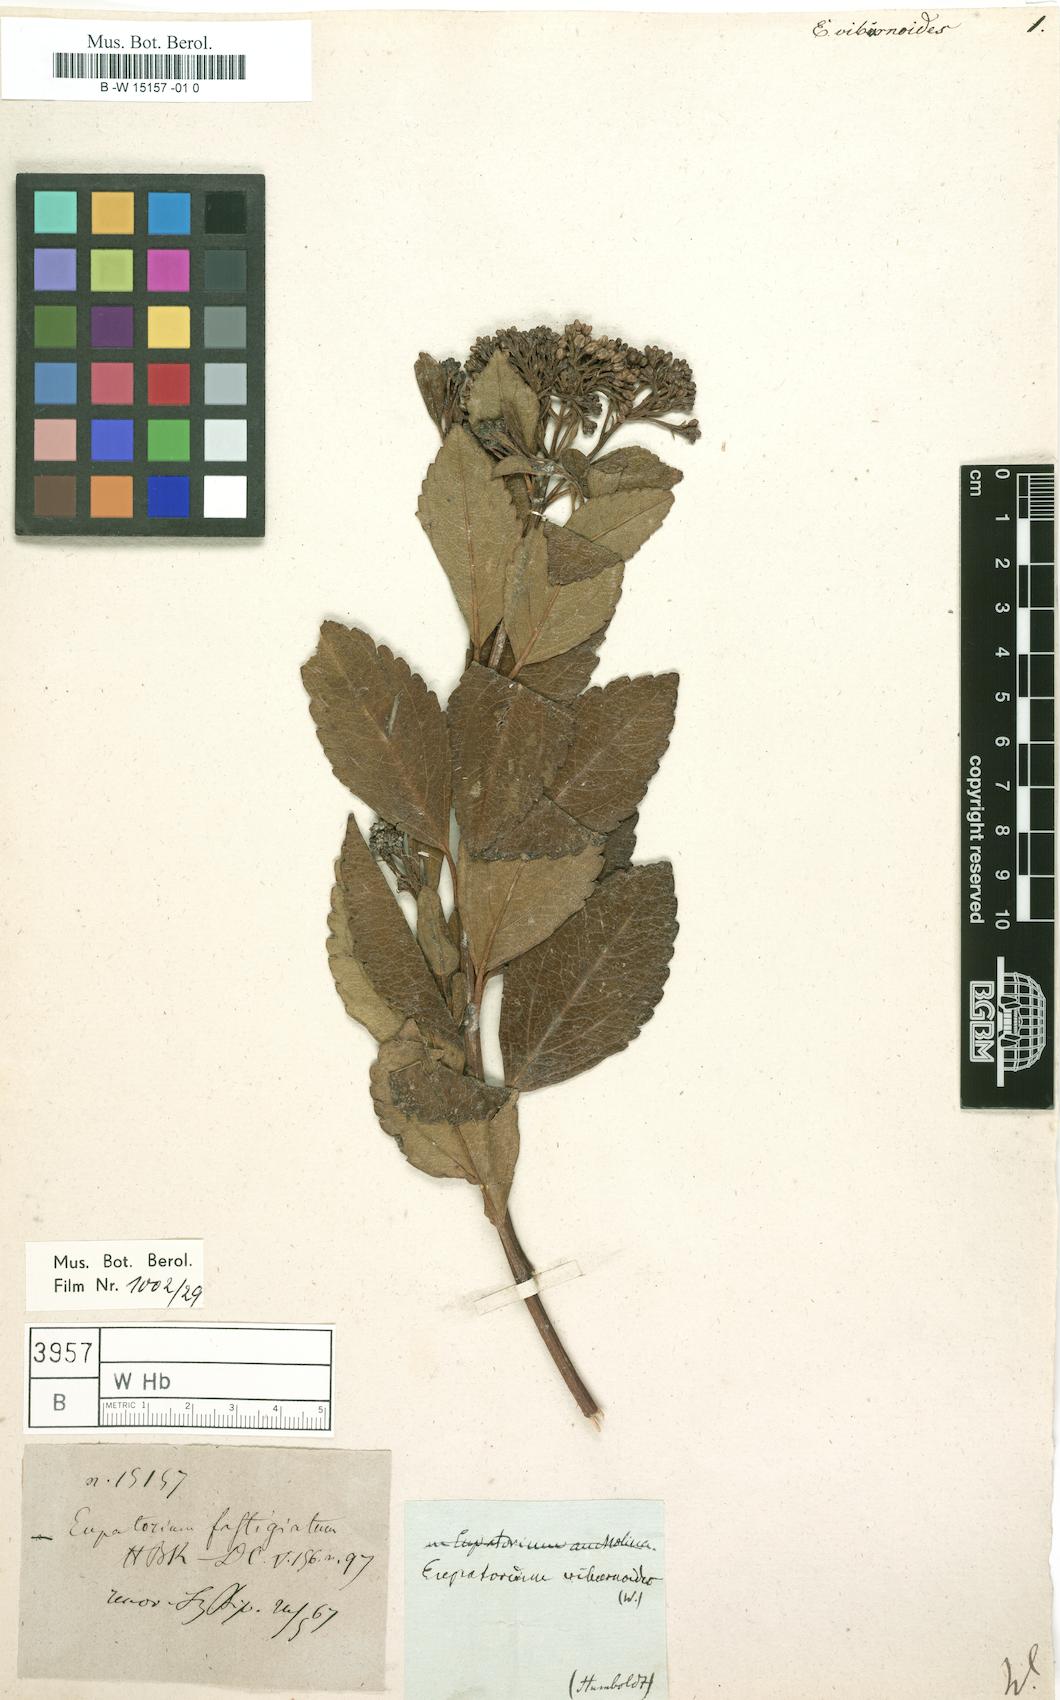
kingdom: Plantae
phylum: Tracheophyta
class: Magnoliopsida
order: Asterales
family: Asteraceae
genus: Ageratina
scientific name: Ageratina viburnoides
